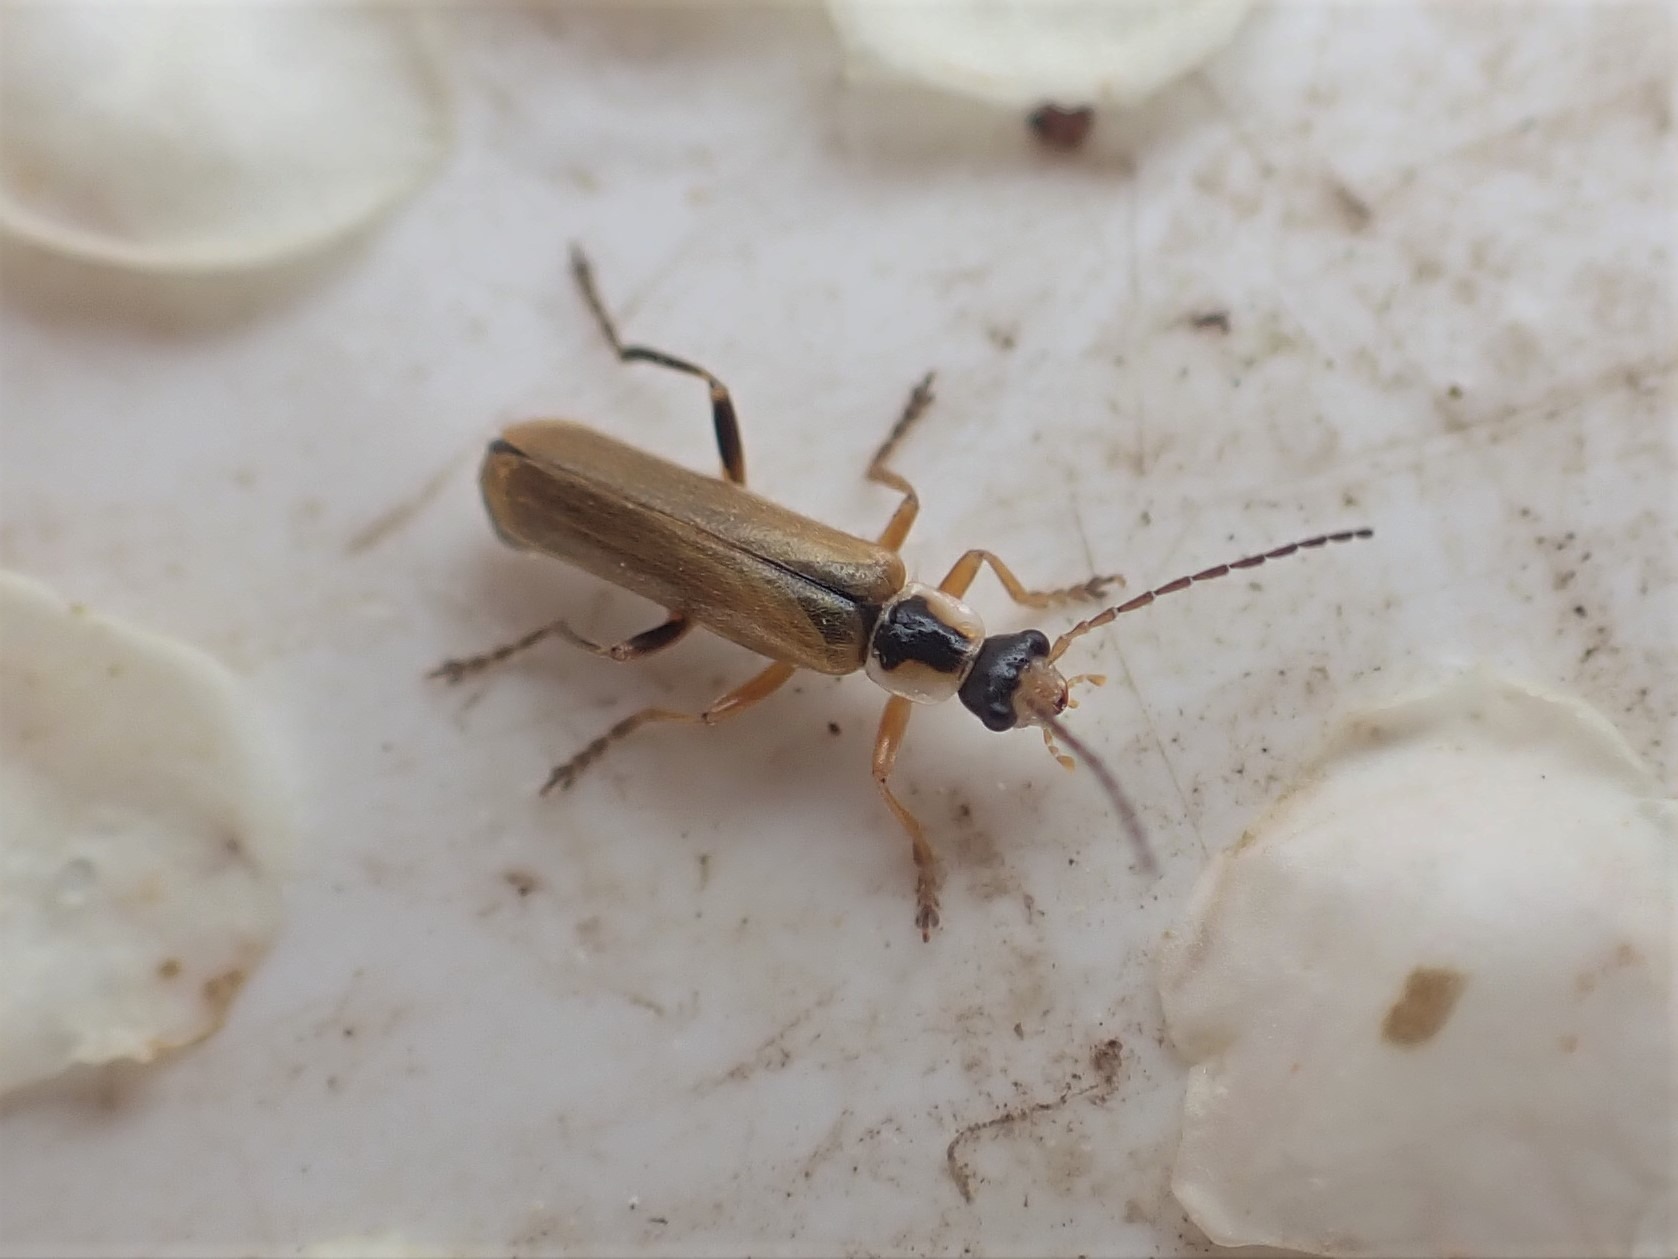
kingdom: Animalia
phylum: Arthropoda
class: Insecta
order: Coleoptera
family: Cantharidae
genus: Cantharis
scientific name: Cantharis decipiens
